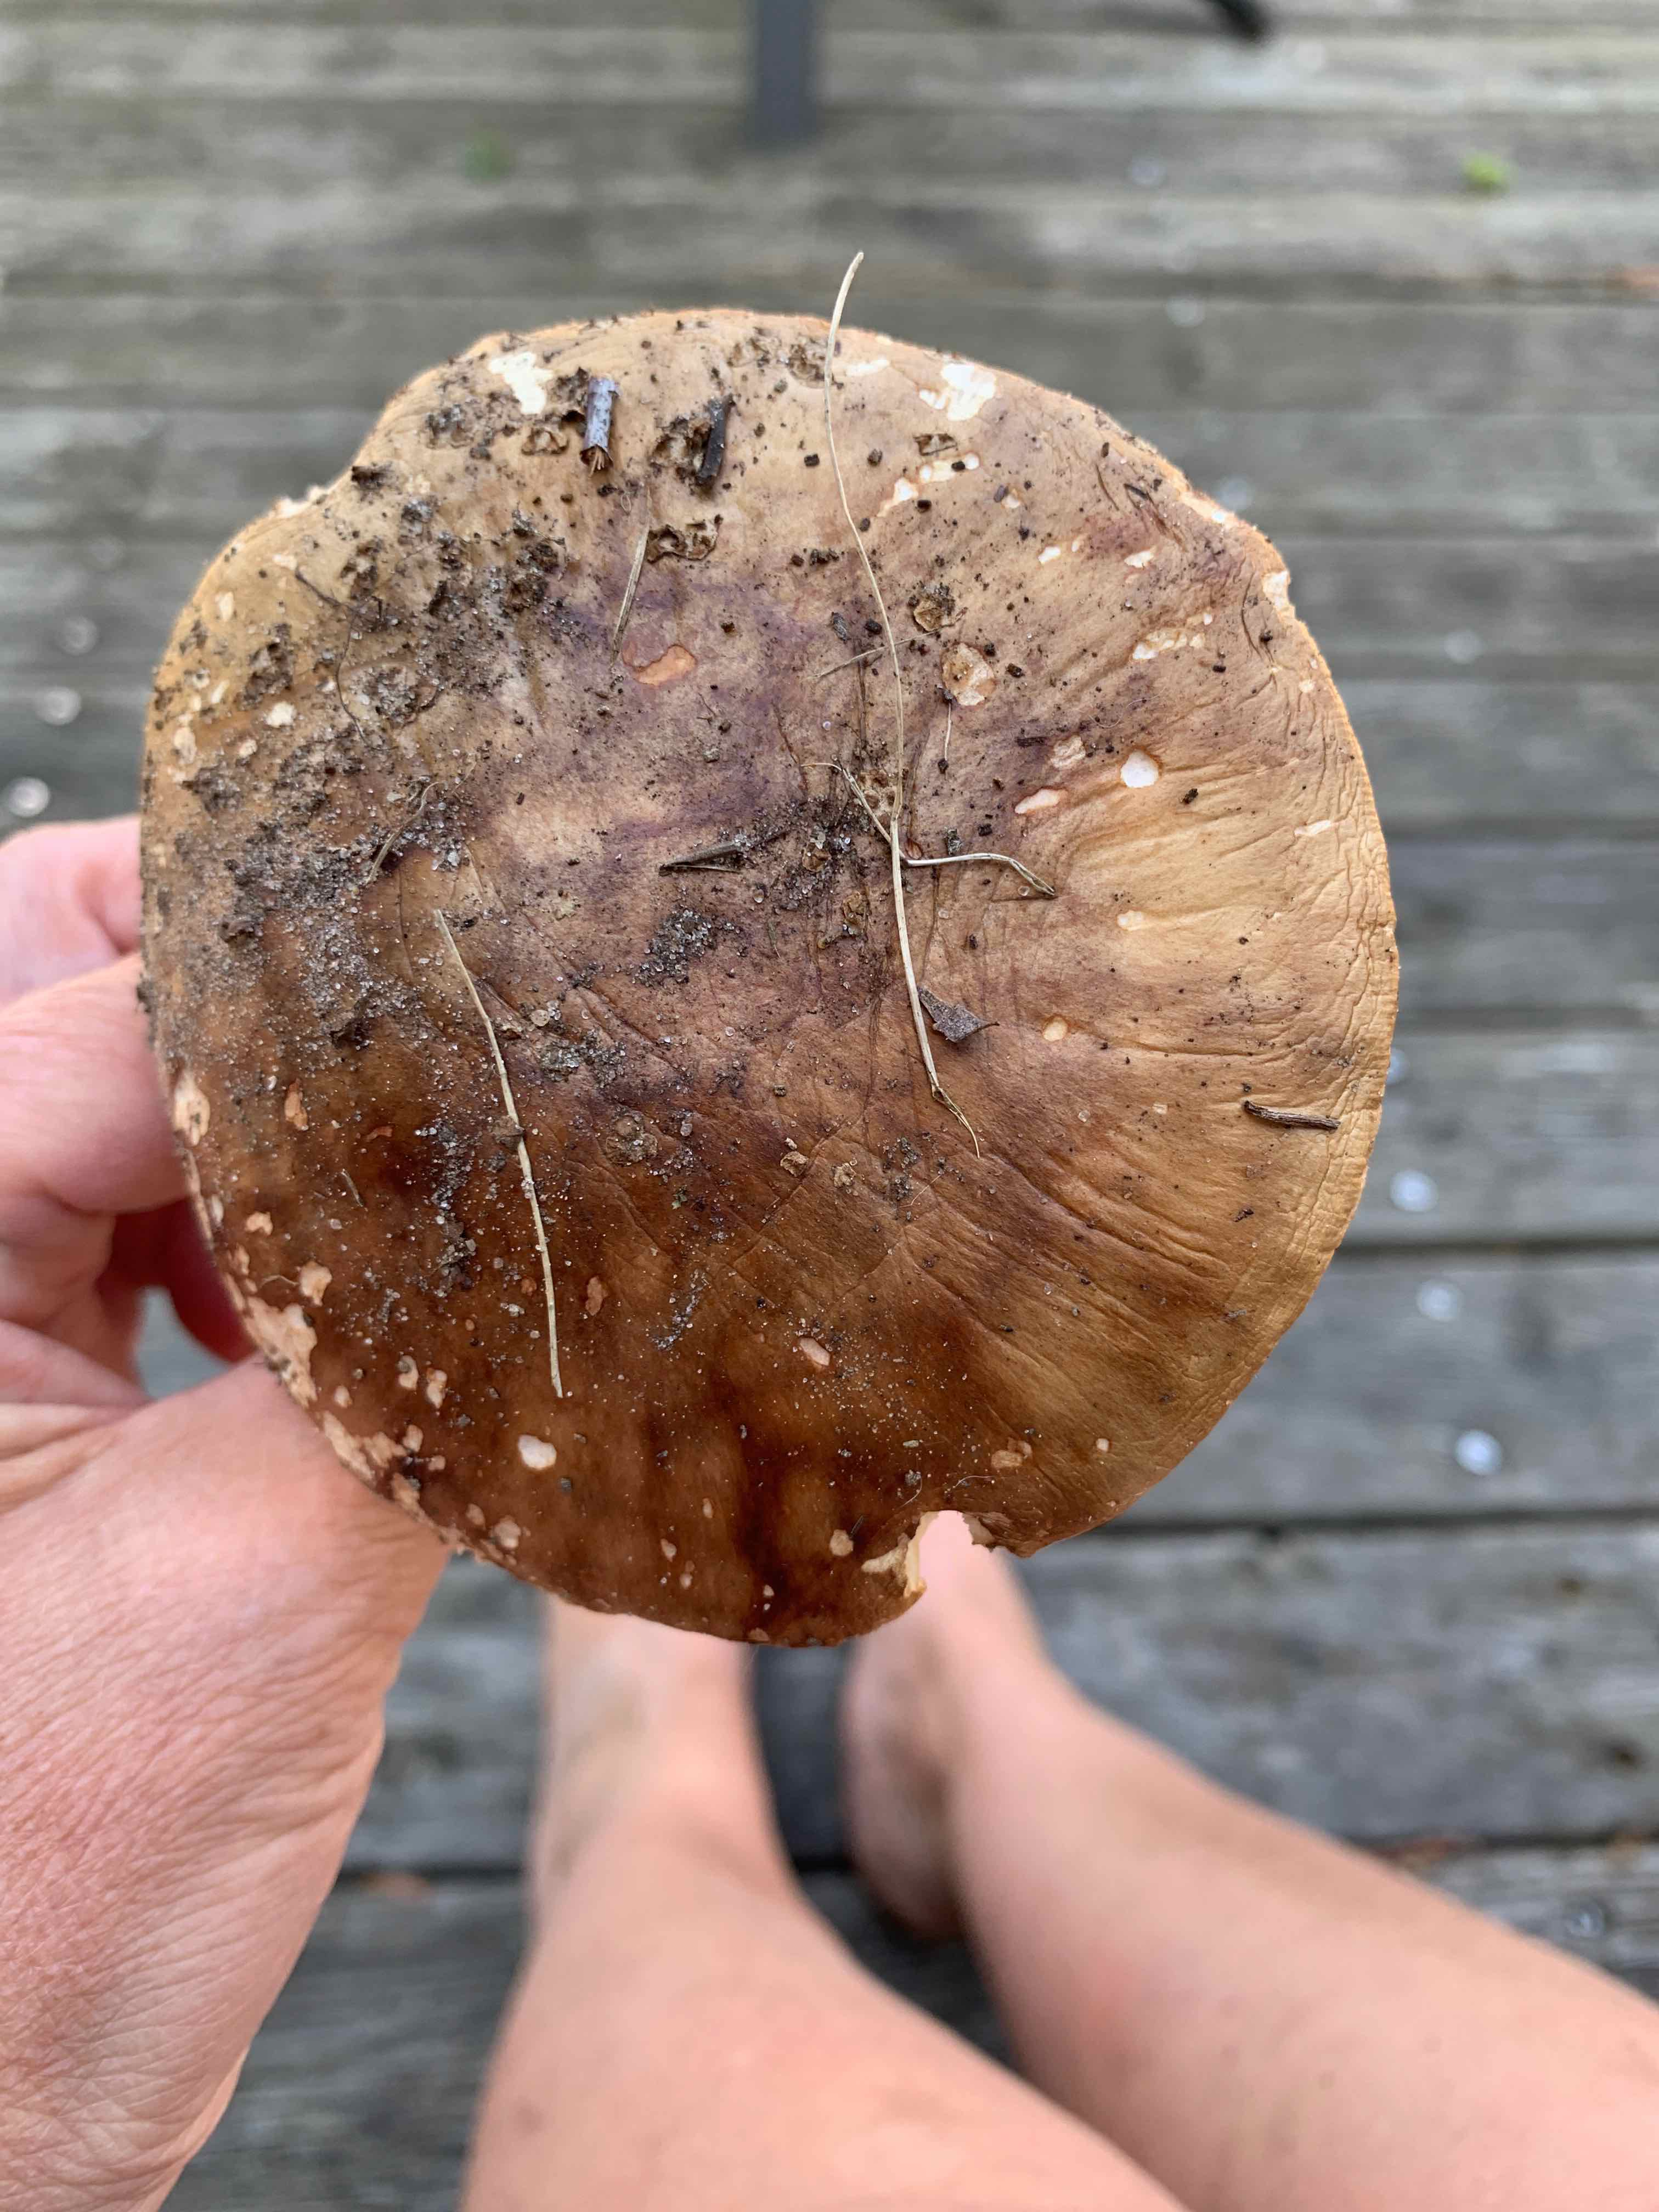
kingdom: Fungi
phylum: Basidiomycota
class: Agaricomycetes
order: Agaricales
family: Amanitaceae
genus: Amanita
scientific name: Amanita rubescens
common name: rødmende fluesvamp
